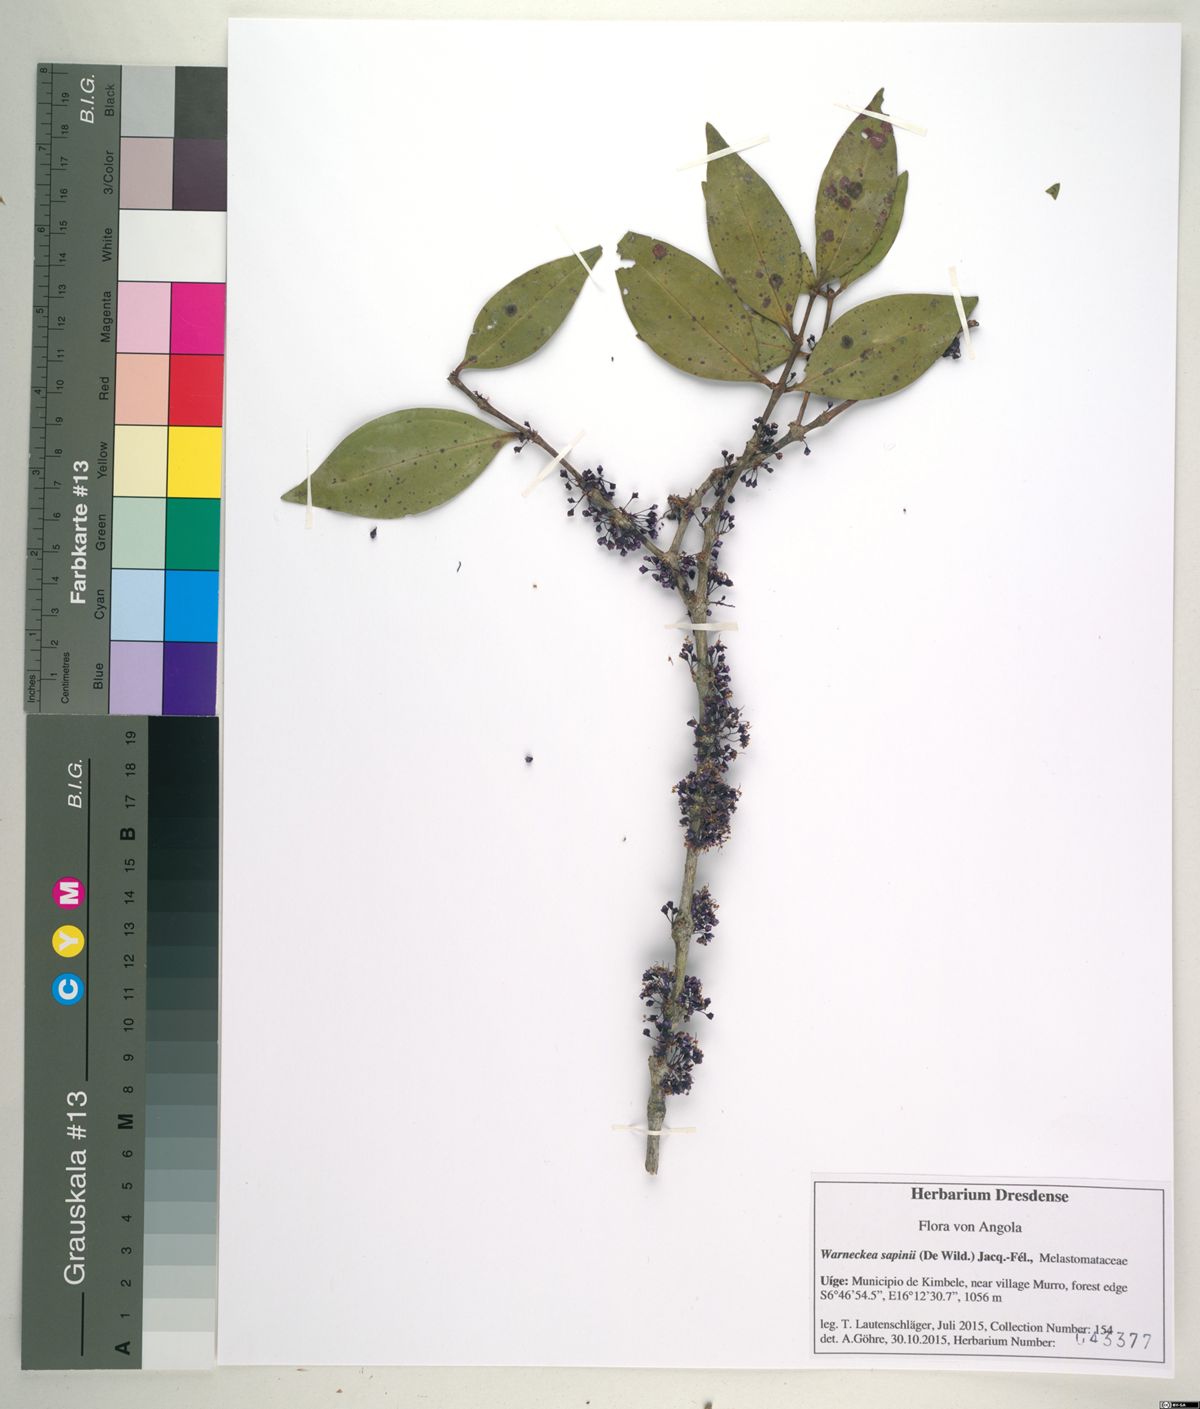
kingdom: Plantae
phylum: Tracheophyta
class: Magnoliopsida
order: Myrtales
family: Melastomataceae
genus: Warneckea
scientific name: Warneckea sapinii
